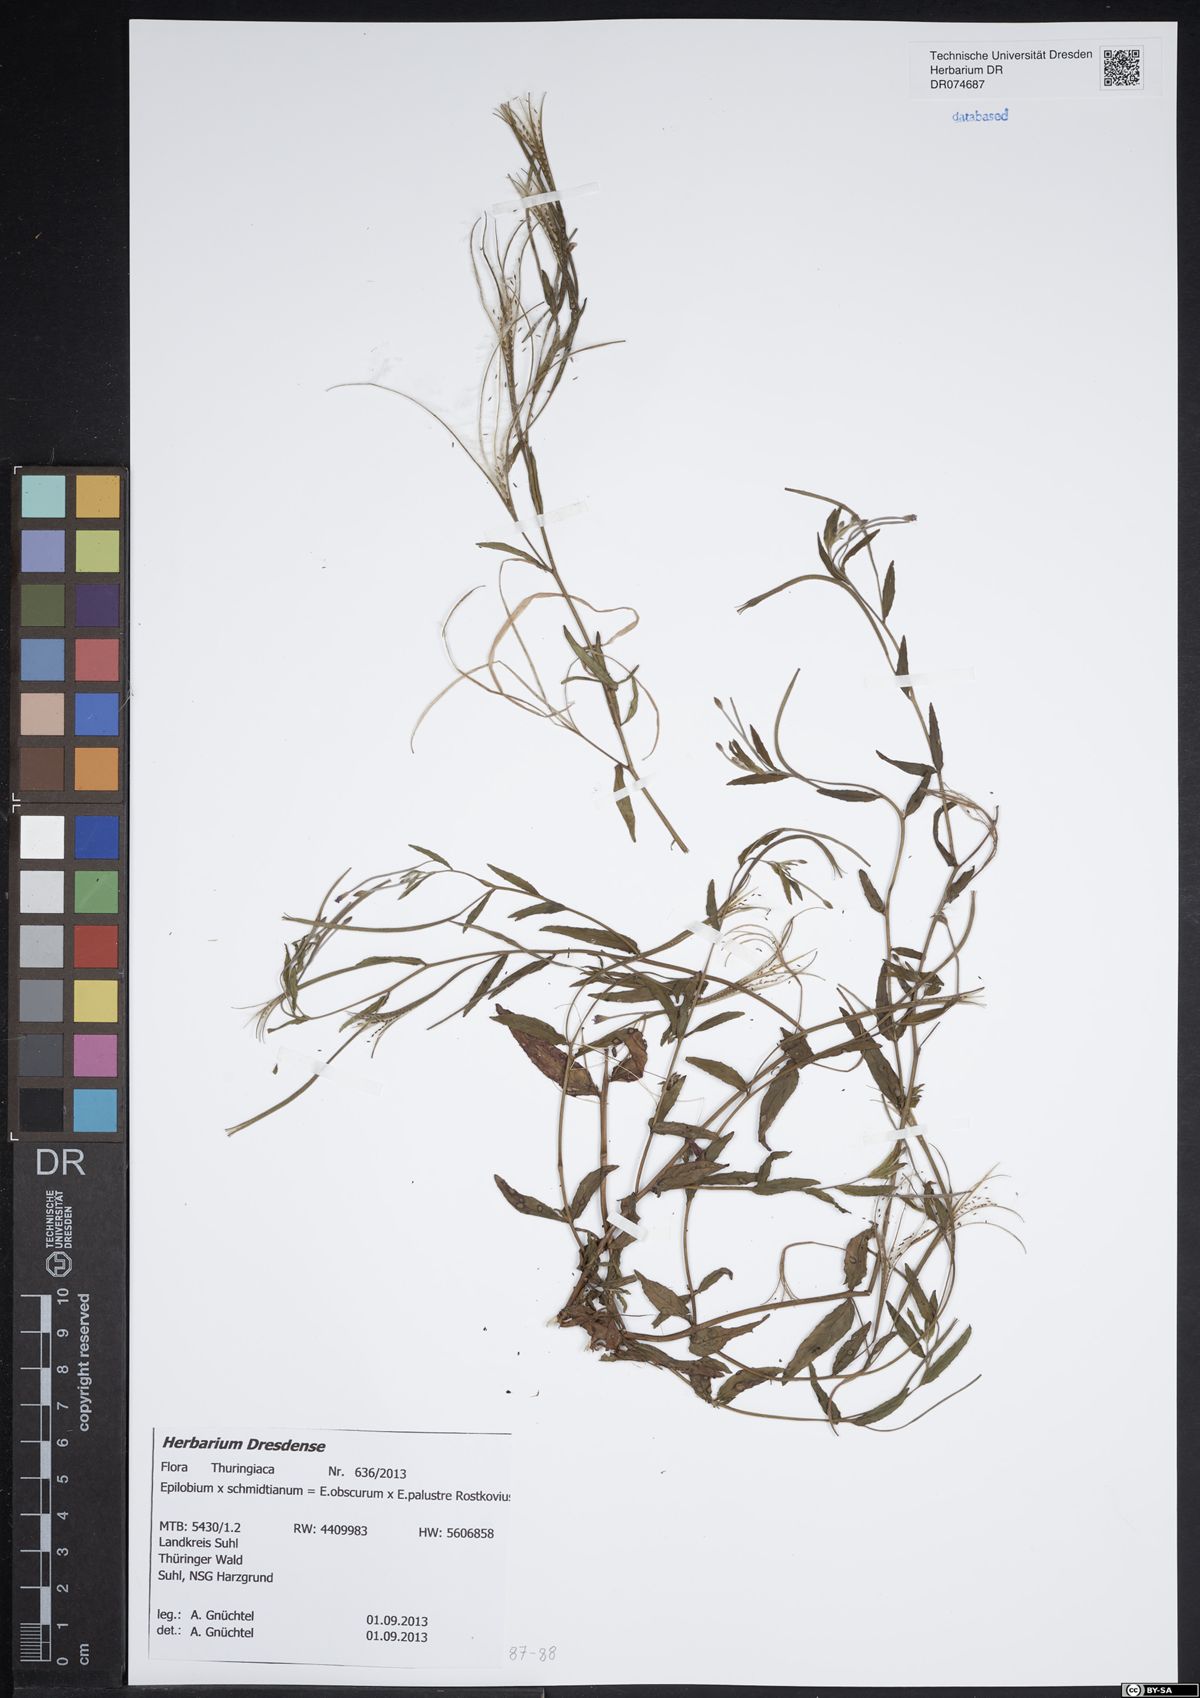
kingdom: Plantae
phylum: Tracheophyta
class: Magnoliopsida
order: Myrtales
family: Onagraceae
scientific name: Onagraceae
